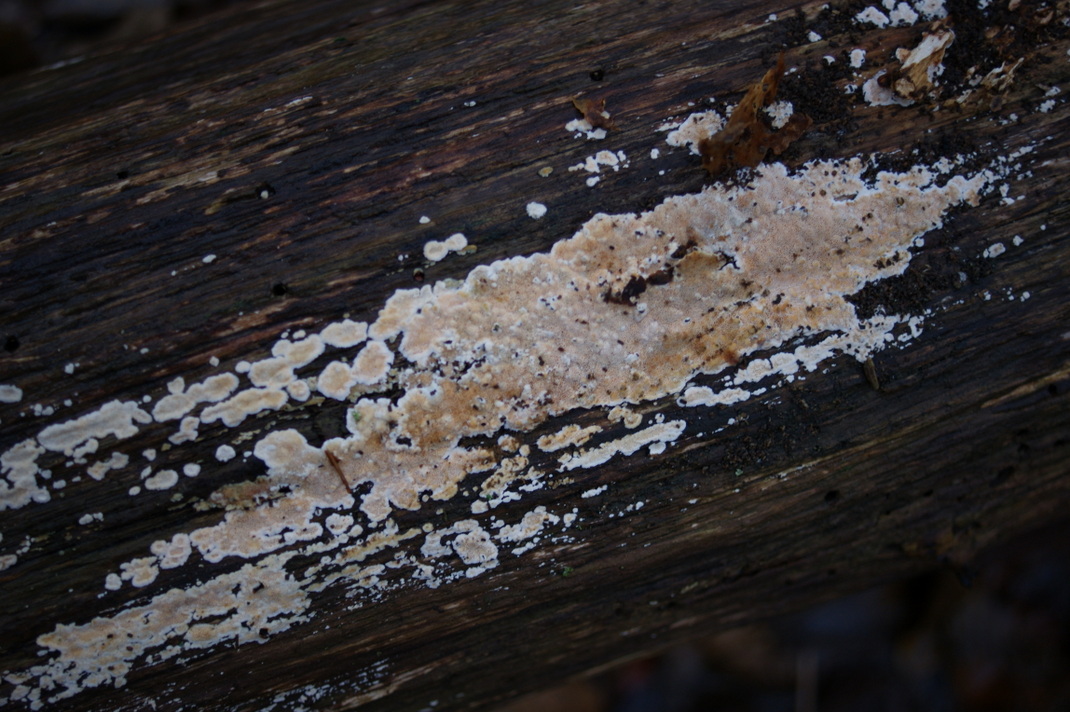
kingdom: Fungi
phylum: Basidiomycota
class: Agaricomycetes
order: Polyporales
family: Steccherinaceae
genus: Junghuhnia
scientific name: Junghuhnia nitida
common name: almindelig skønporesvamp
